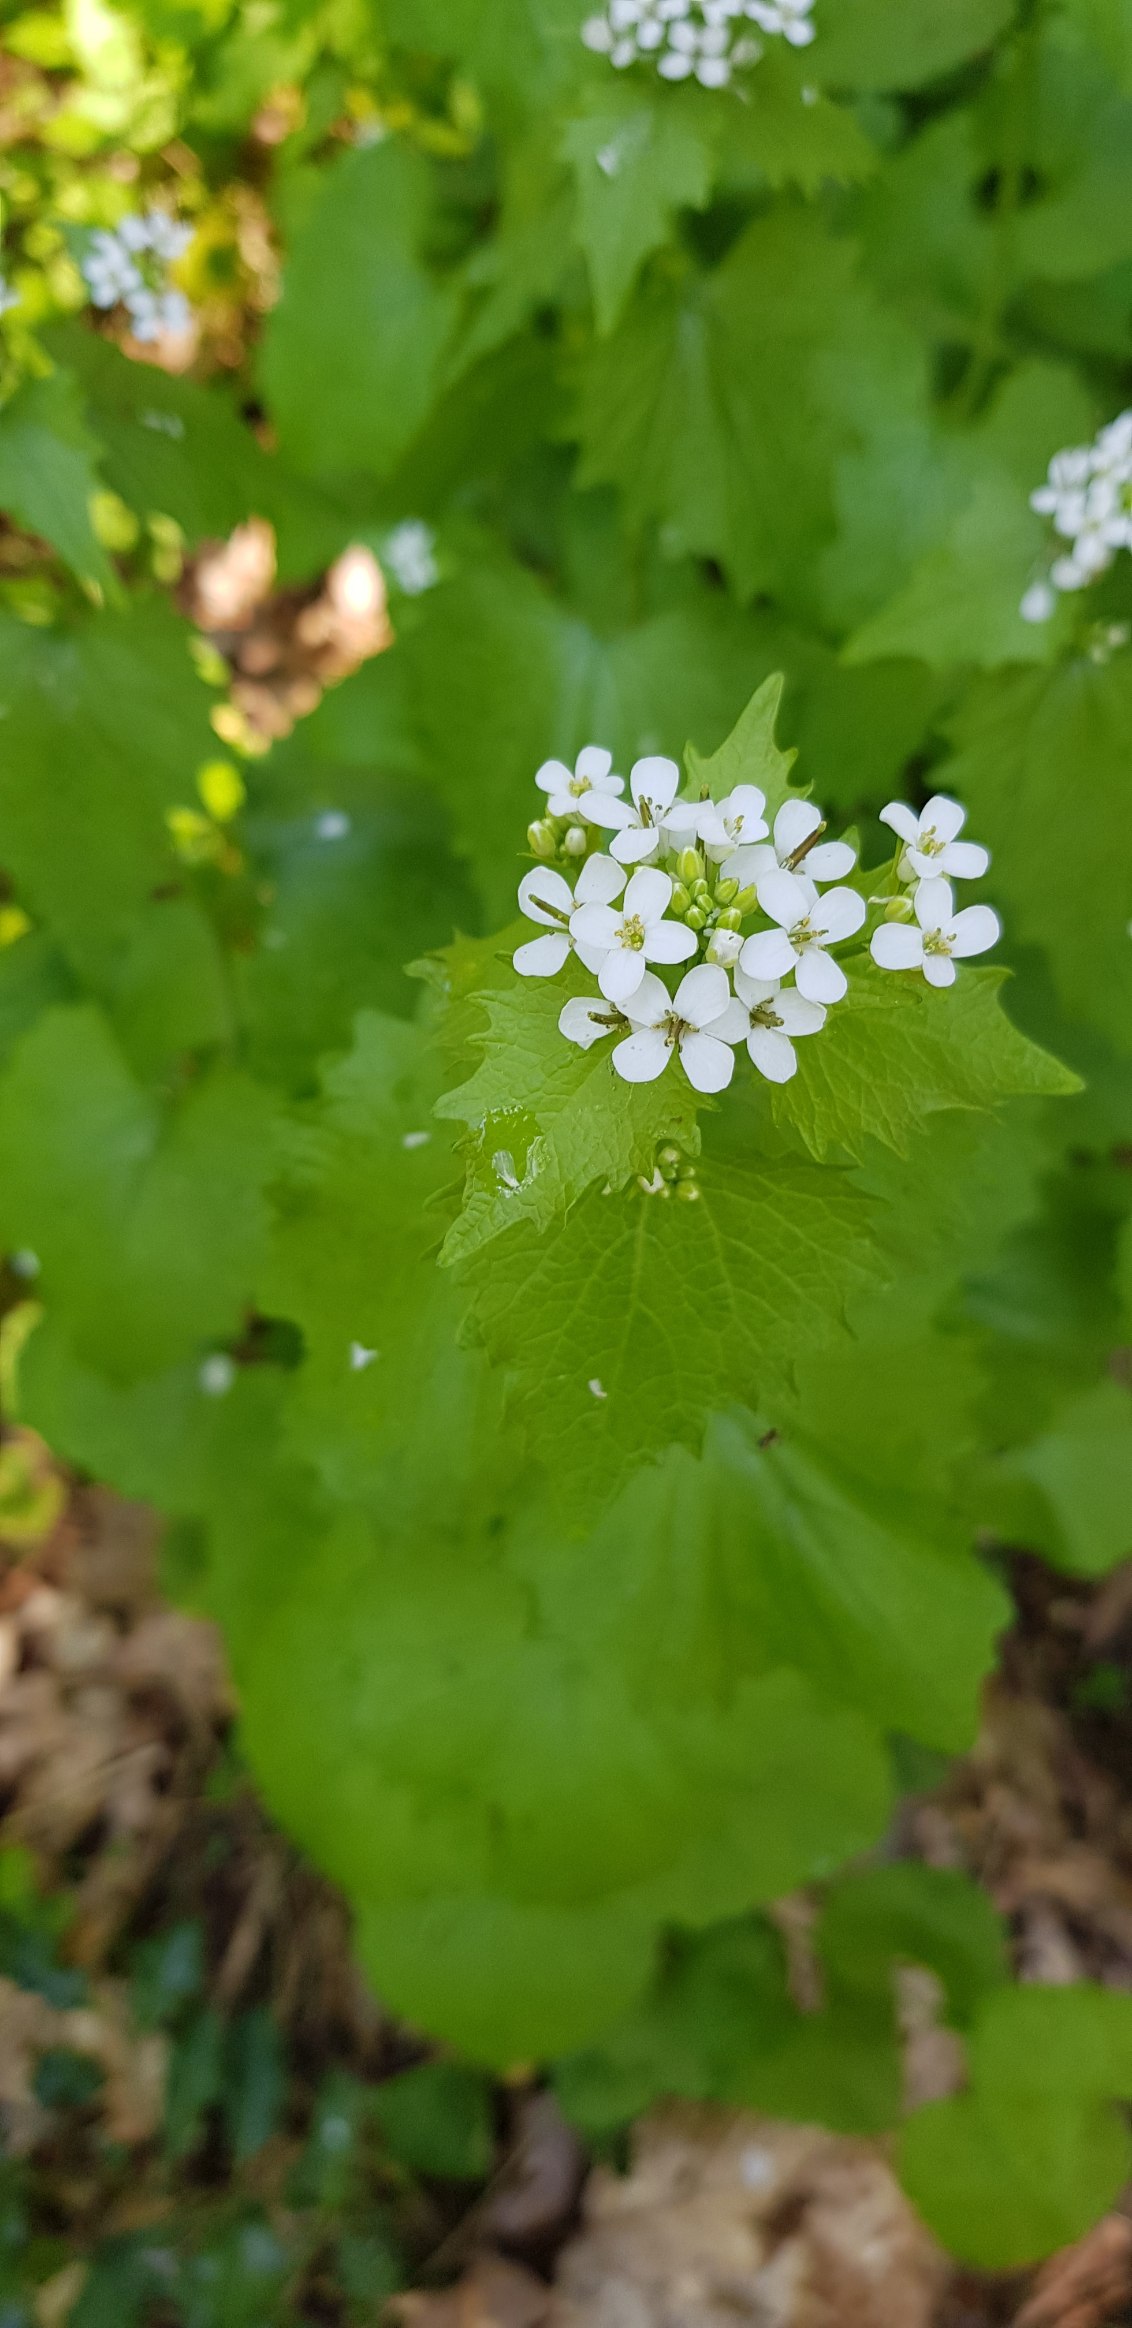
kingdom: Plantae
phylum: Tracheophyta
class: Magnoliopsida
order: Brassicales
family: Brassicaceae
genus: Alliaria
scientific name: Alliaria petiolata
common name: Løgkarse
